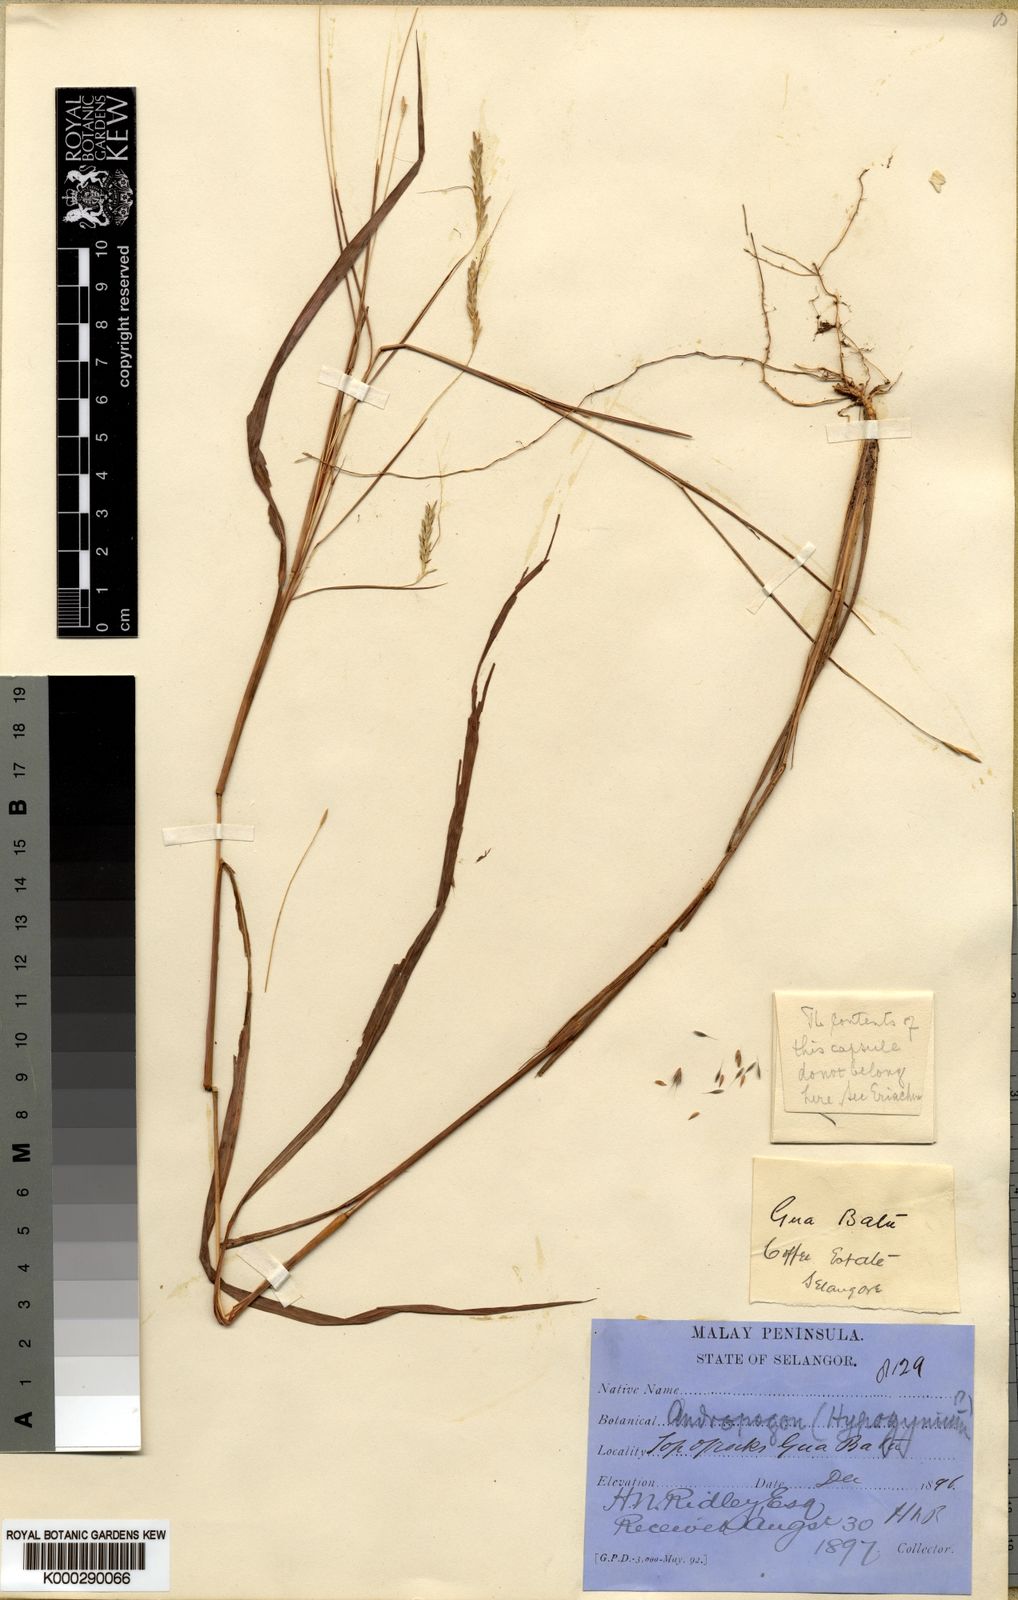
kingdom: Plantae
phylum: Tracheophyta
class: Liliopsida
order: Poales
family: Poaceae
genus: Dichanthium
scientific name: Dichanthium mucronulatum
